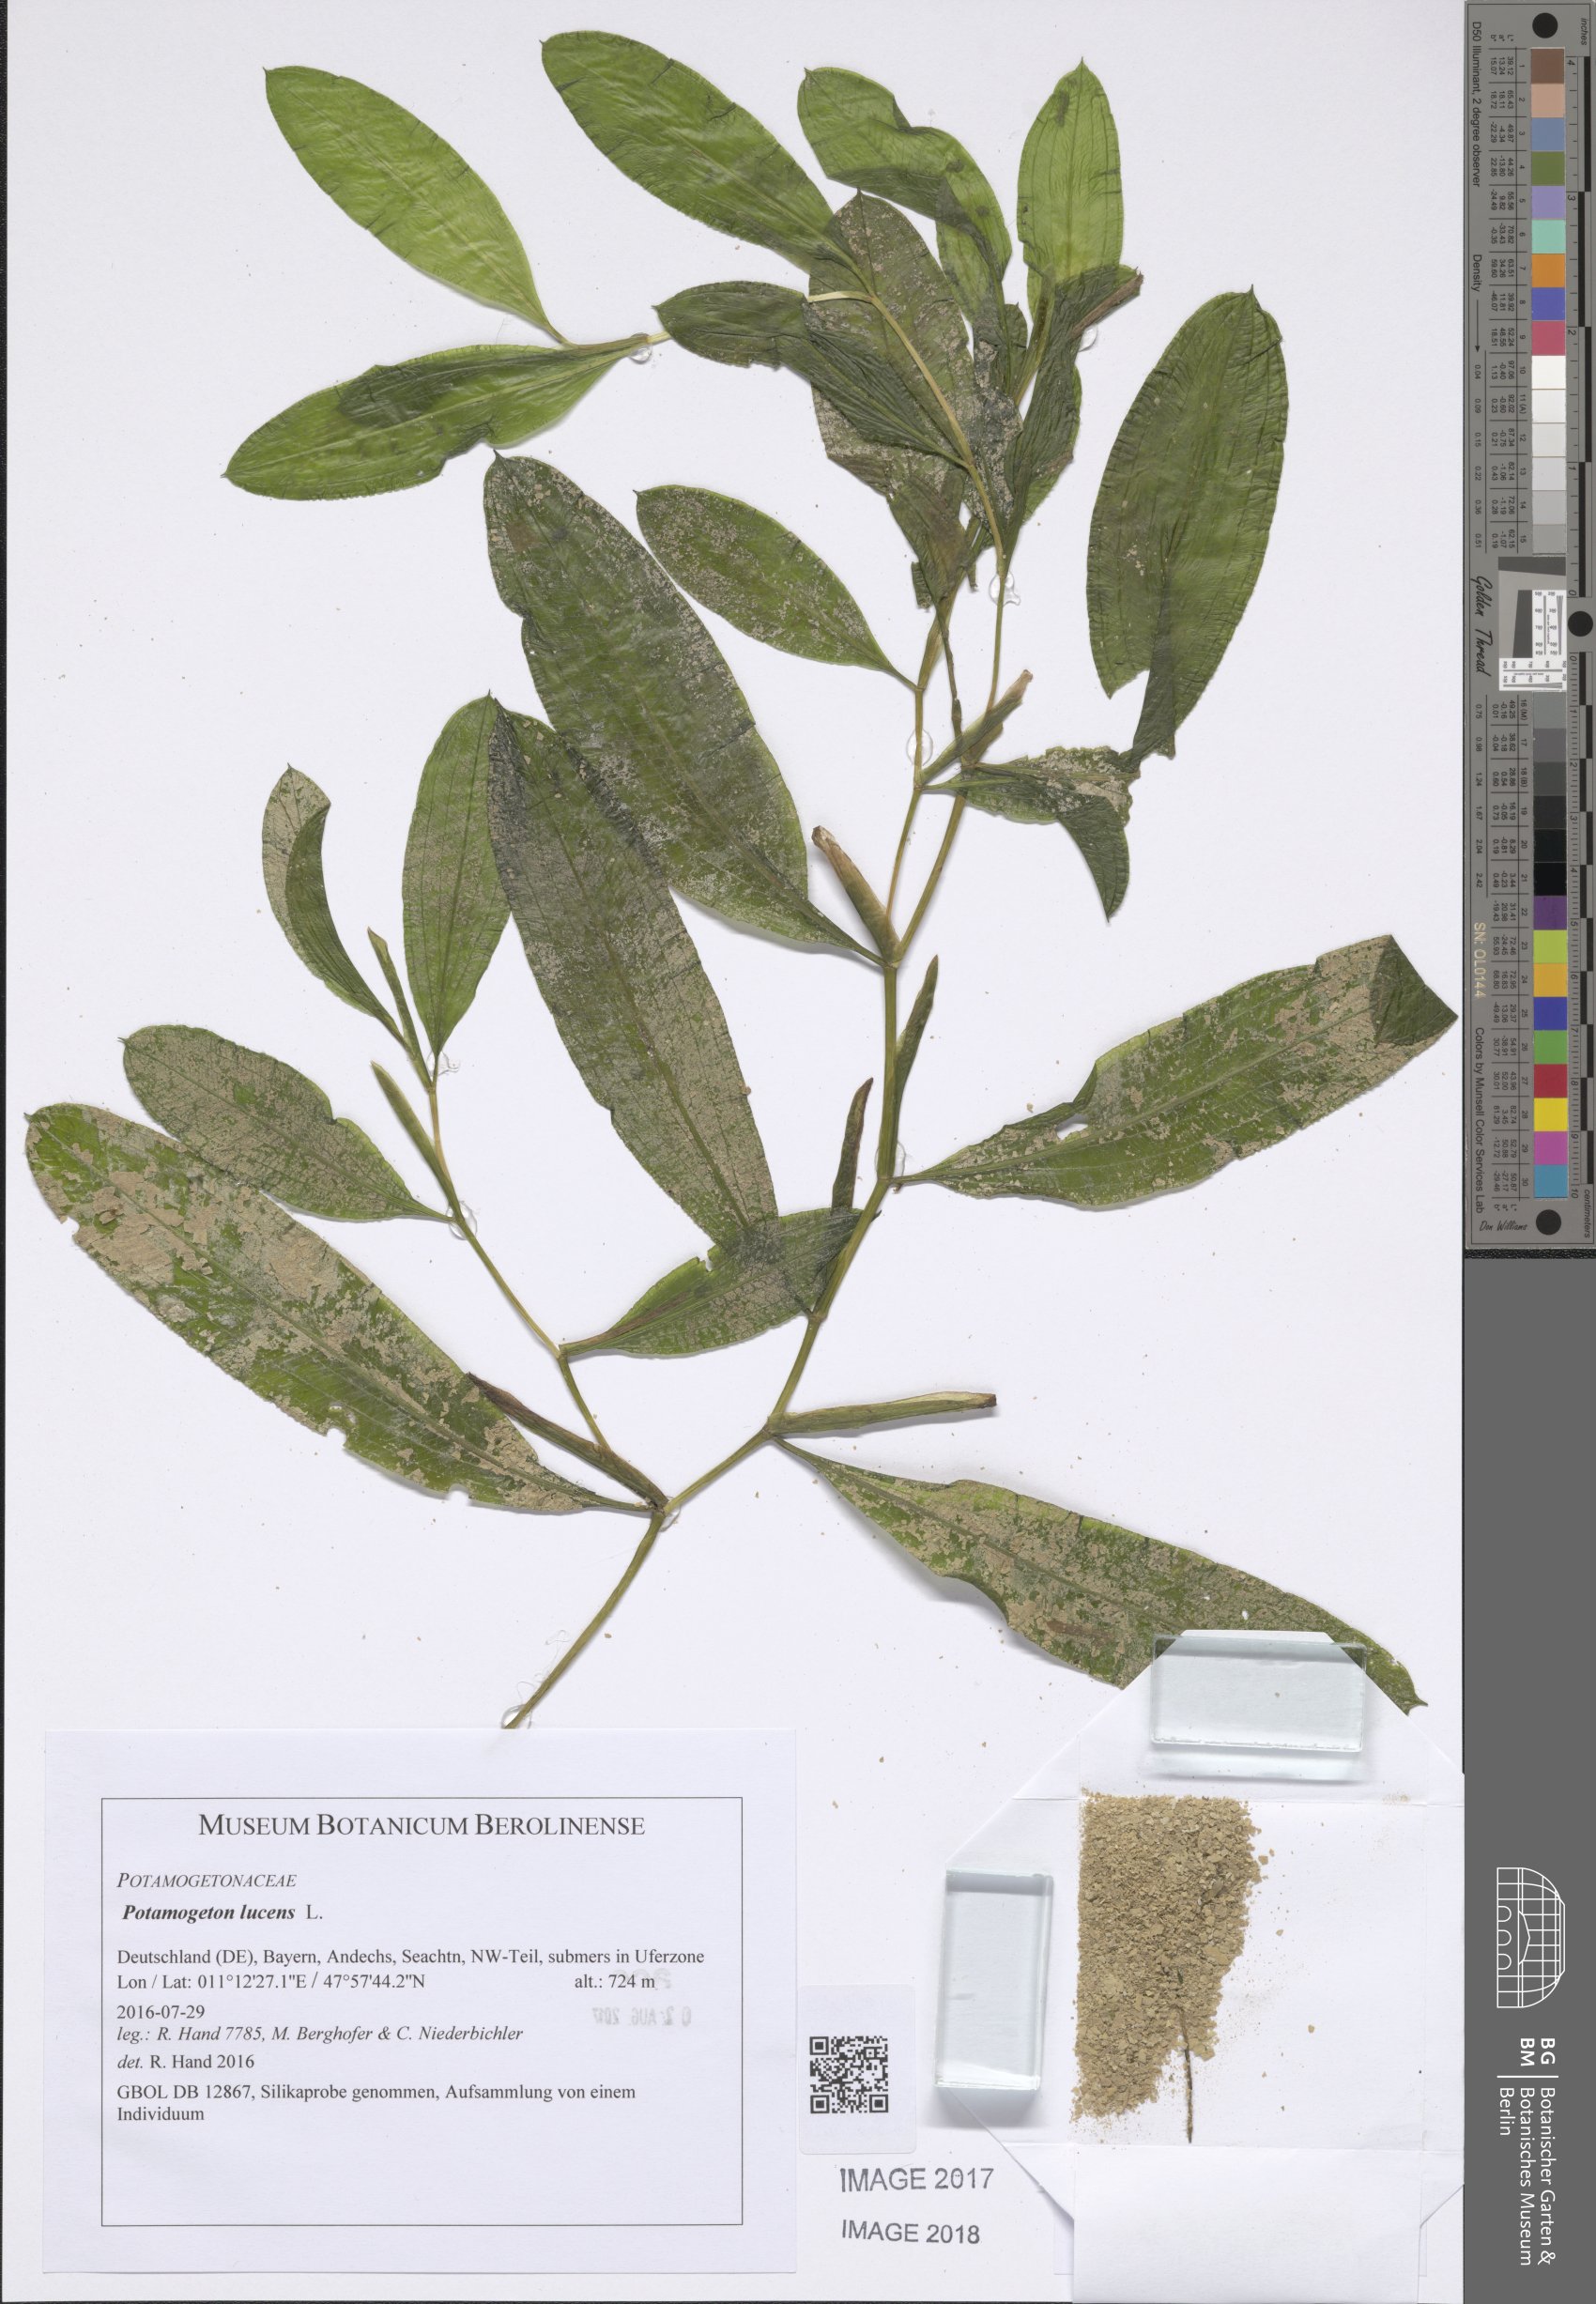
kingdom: Plantae
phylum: Tracheophyta
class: Liliopsida
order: Alismatales
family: Potamogetonaceae
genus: Potamogeton
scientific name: Potamogeton lucens
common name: Shining pondweed
